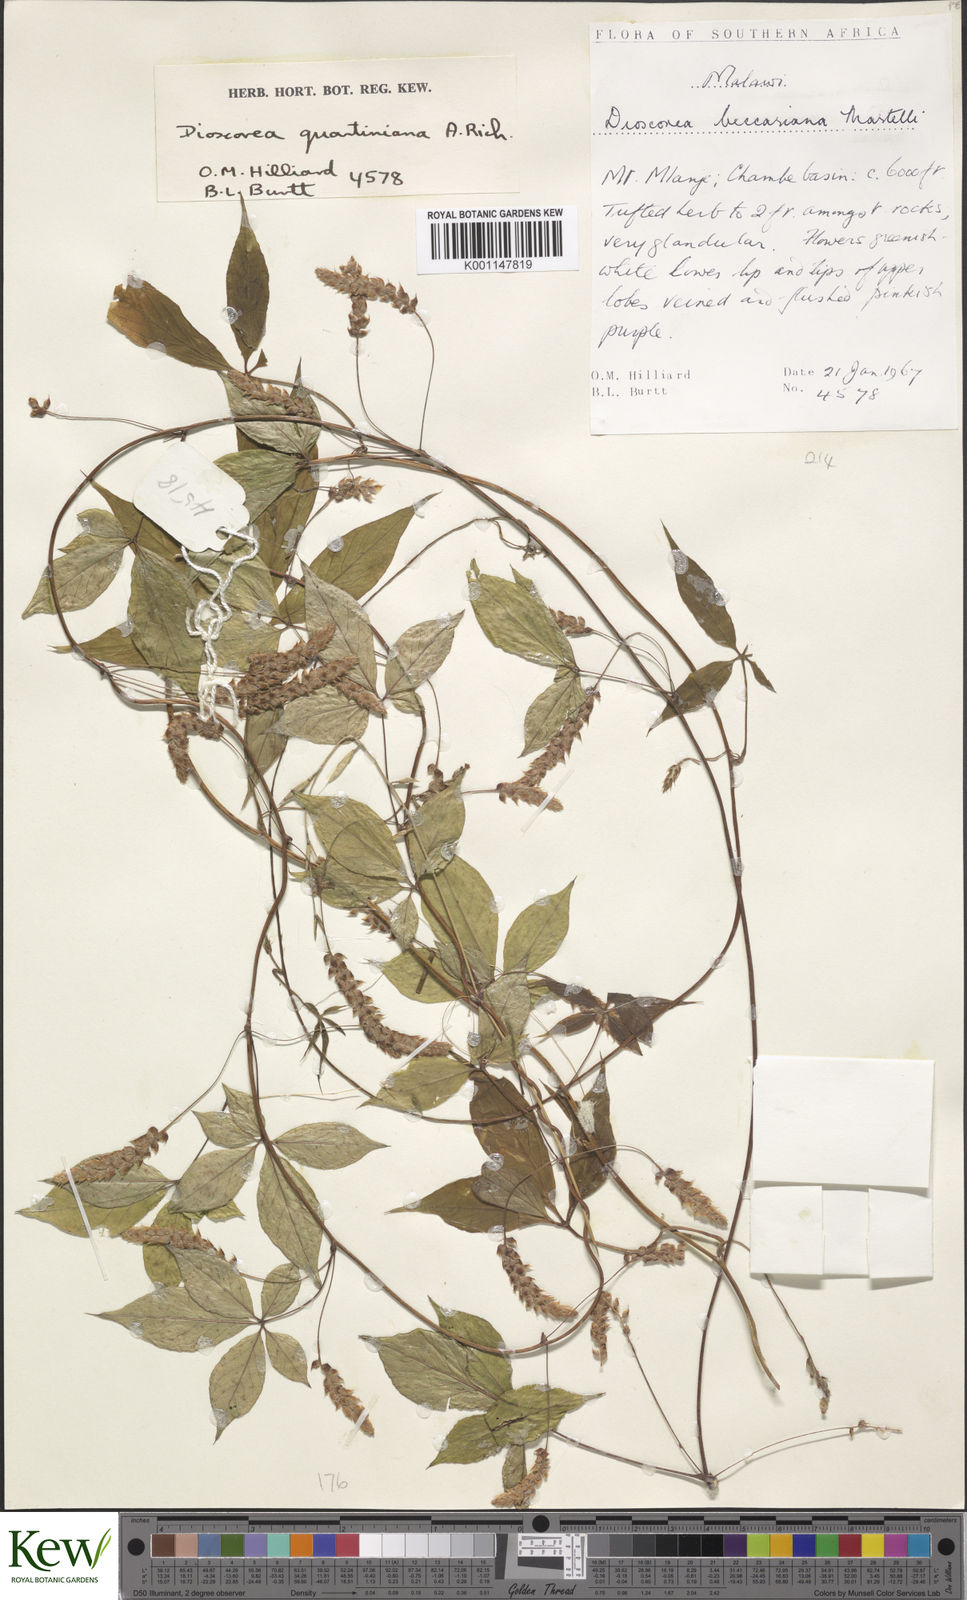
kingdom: Plantae
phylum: Tracheophyta
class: Liliopsida
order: Dioscoreales
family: Dioscoreaceae
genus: Dioscorea
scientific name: Dioscorea quartiniana
